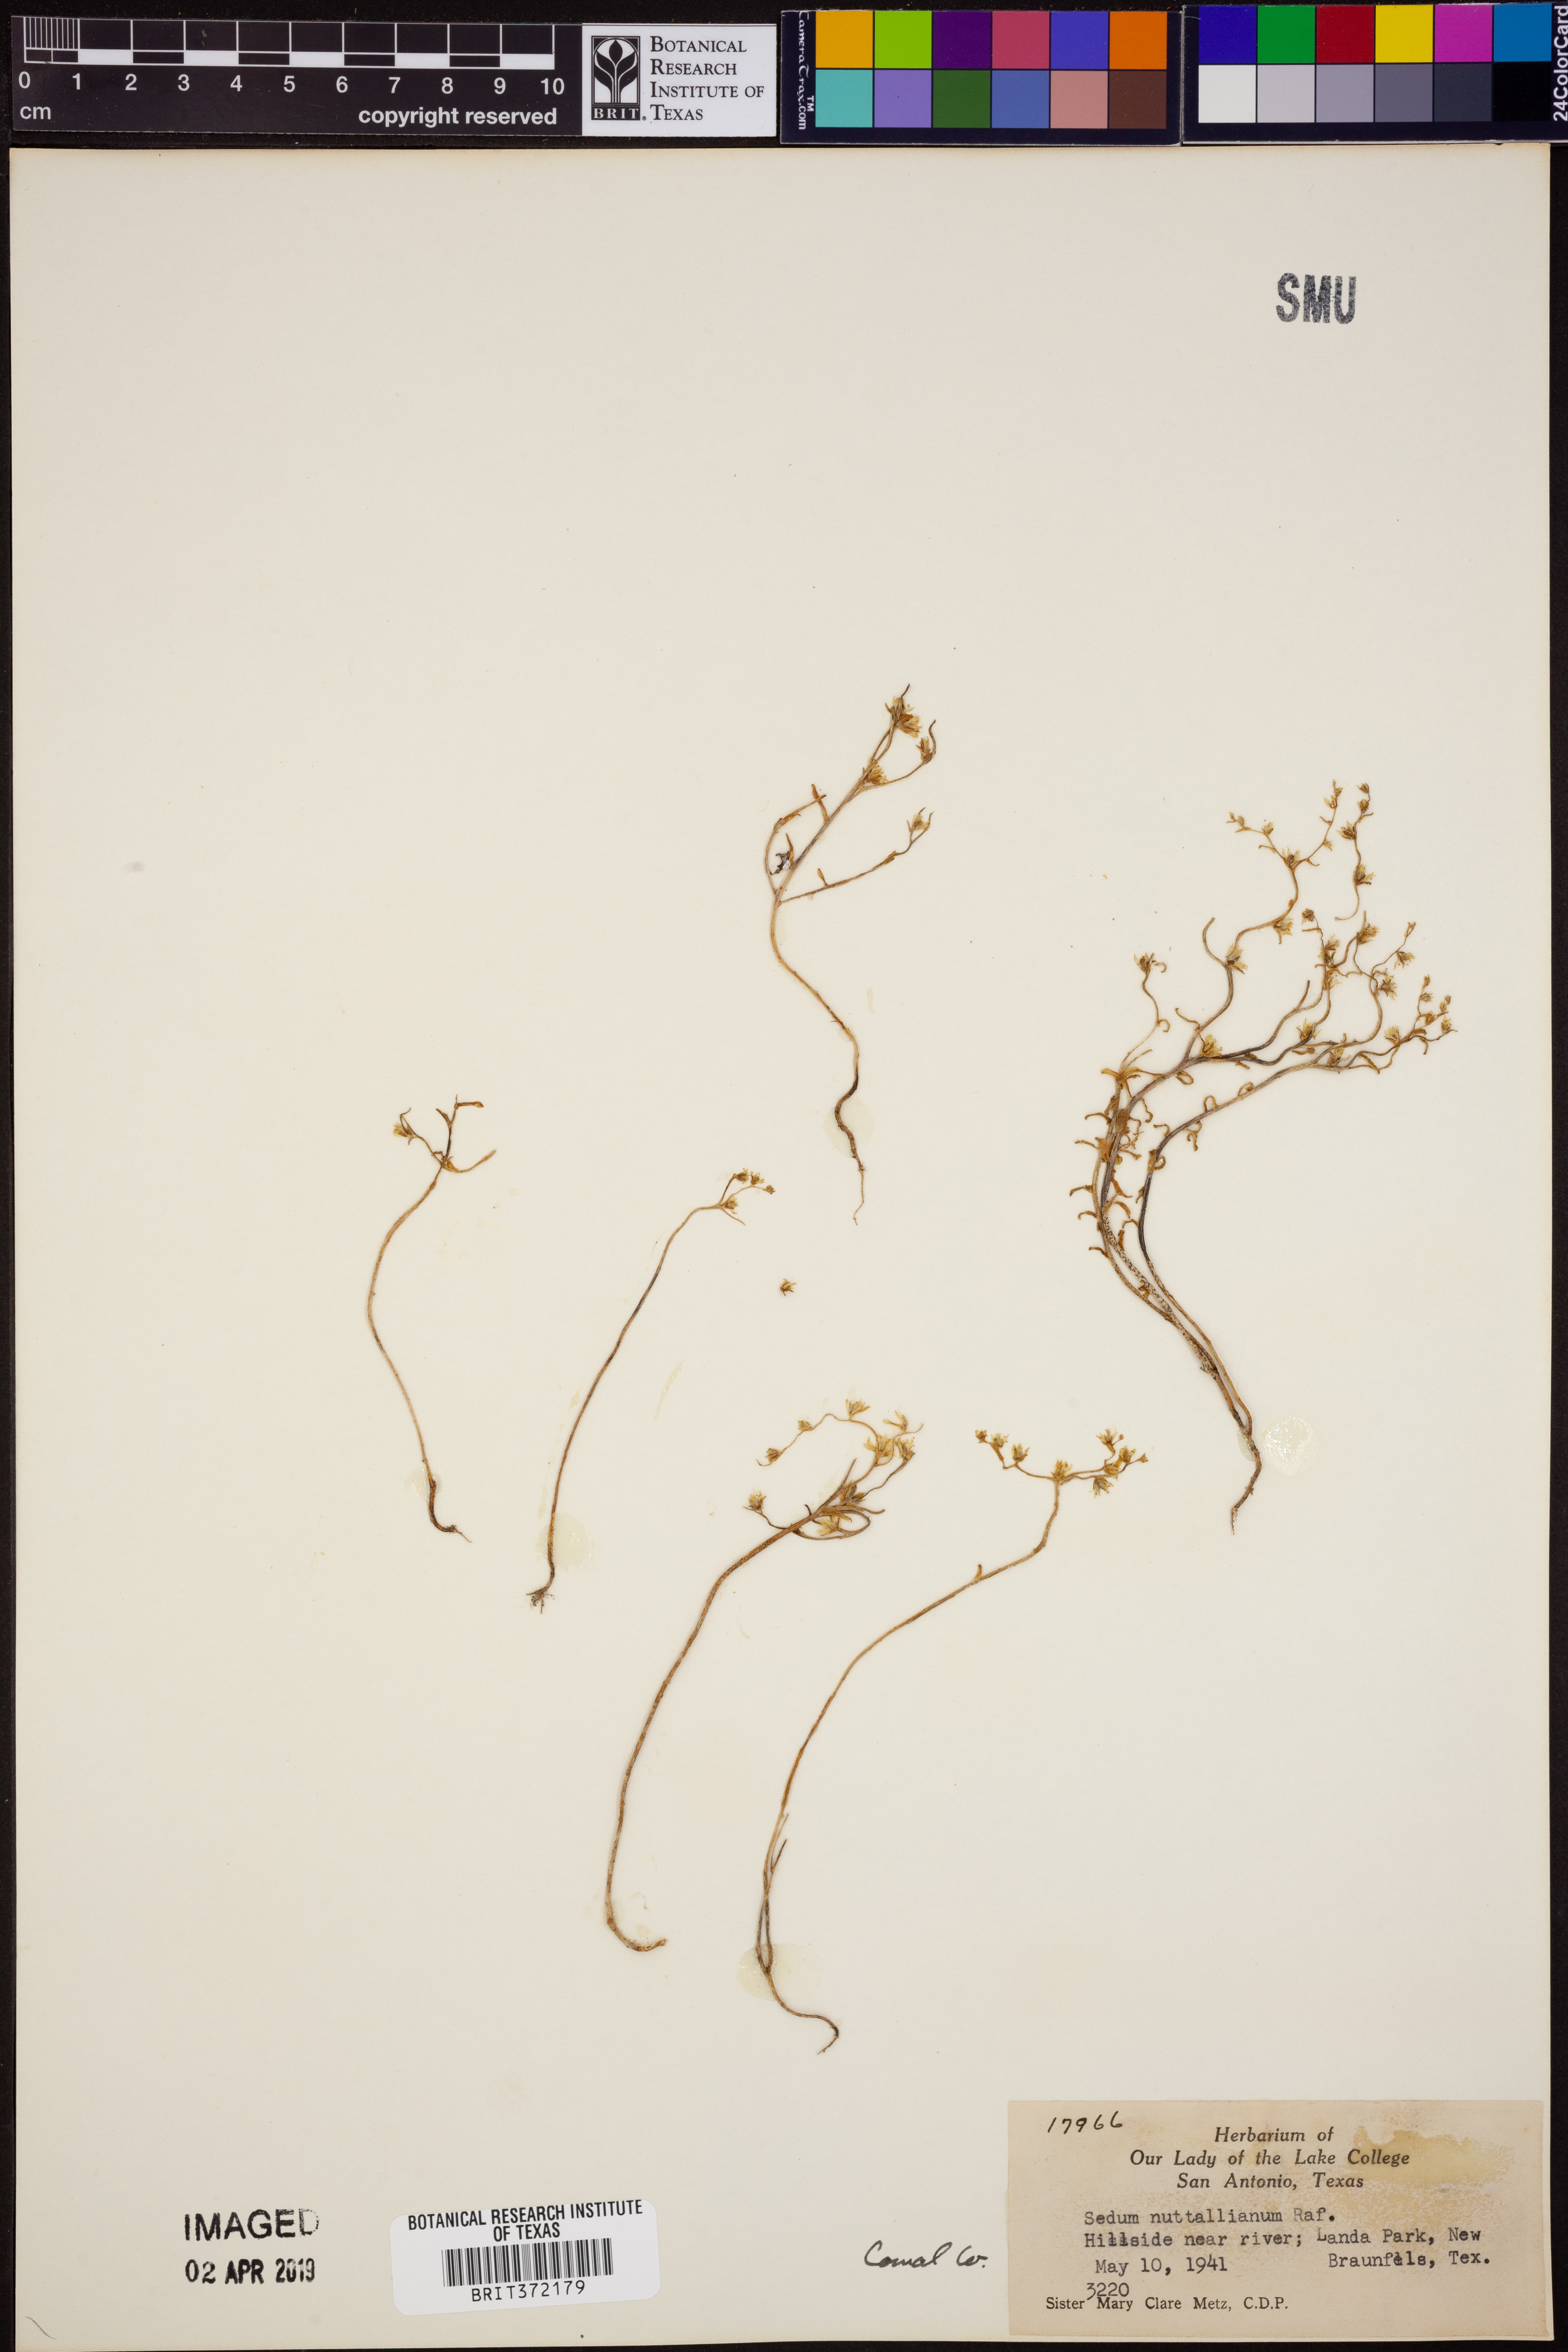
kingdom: Plantae
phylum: Tracheophyta
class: Magnoliopsida
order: Saxifragales
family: Crassulaceae
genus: Sedum
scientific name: Sedum nuttallii
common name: Yellow stonecrop
